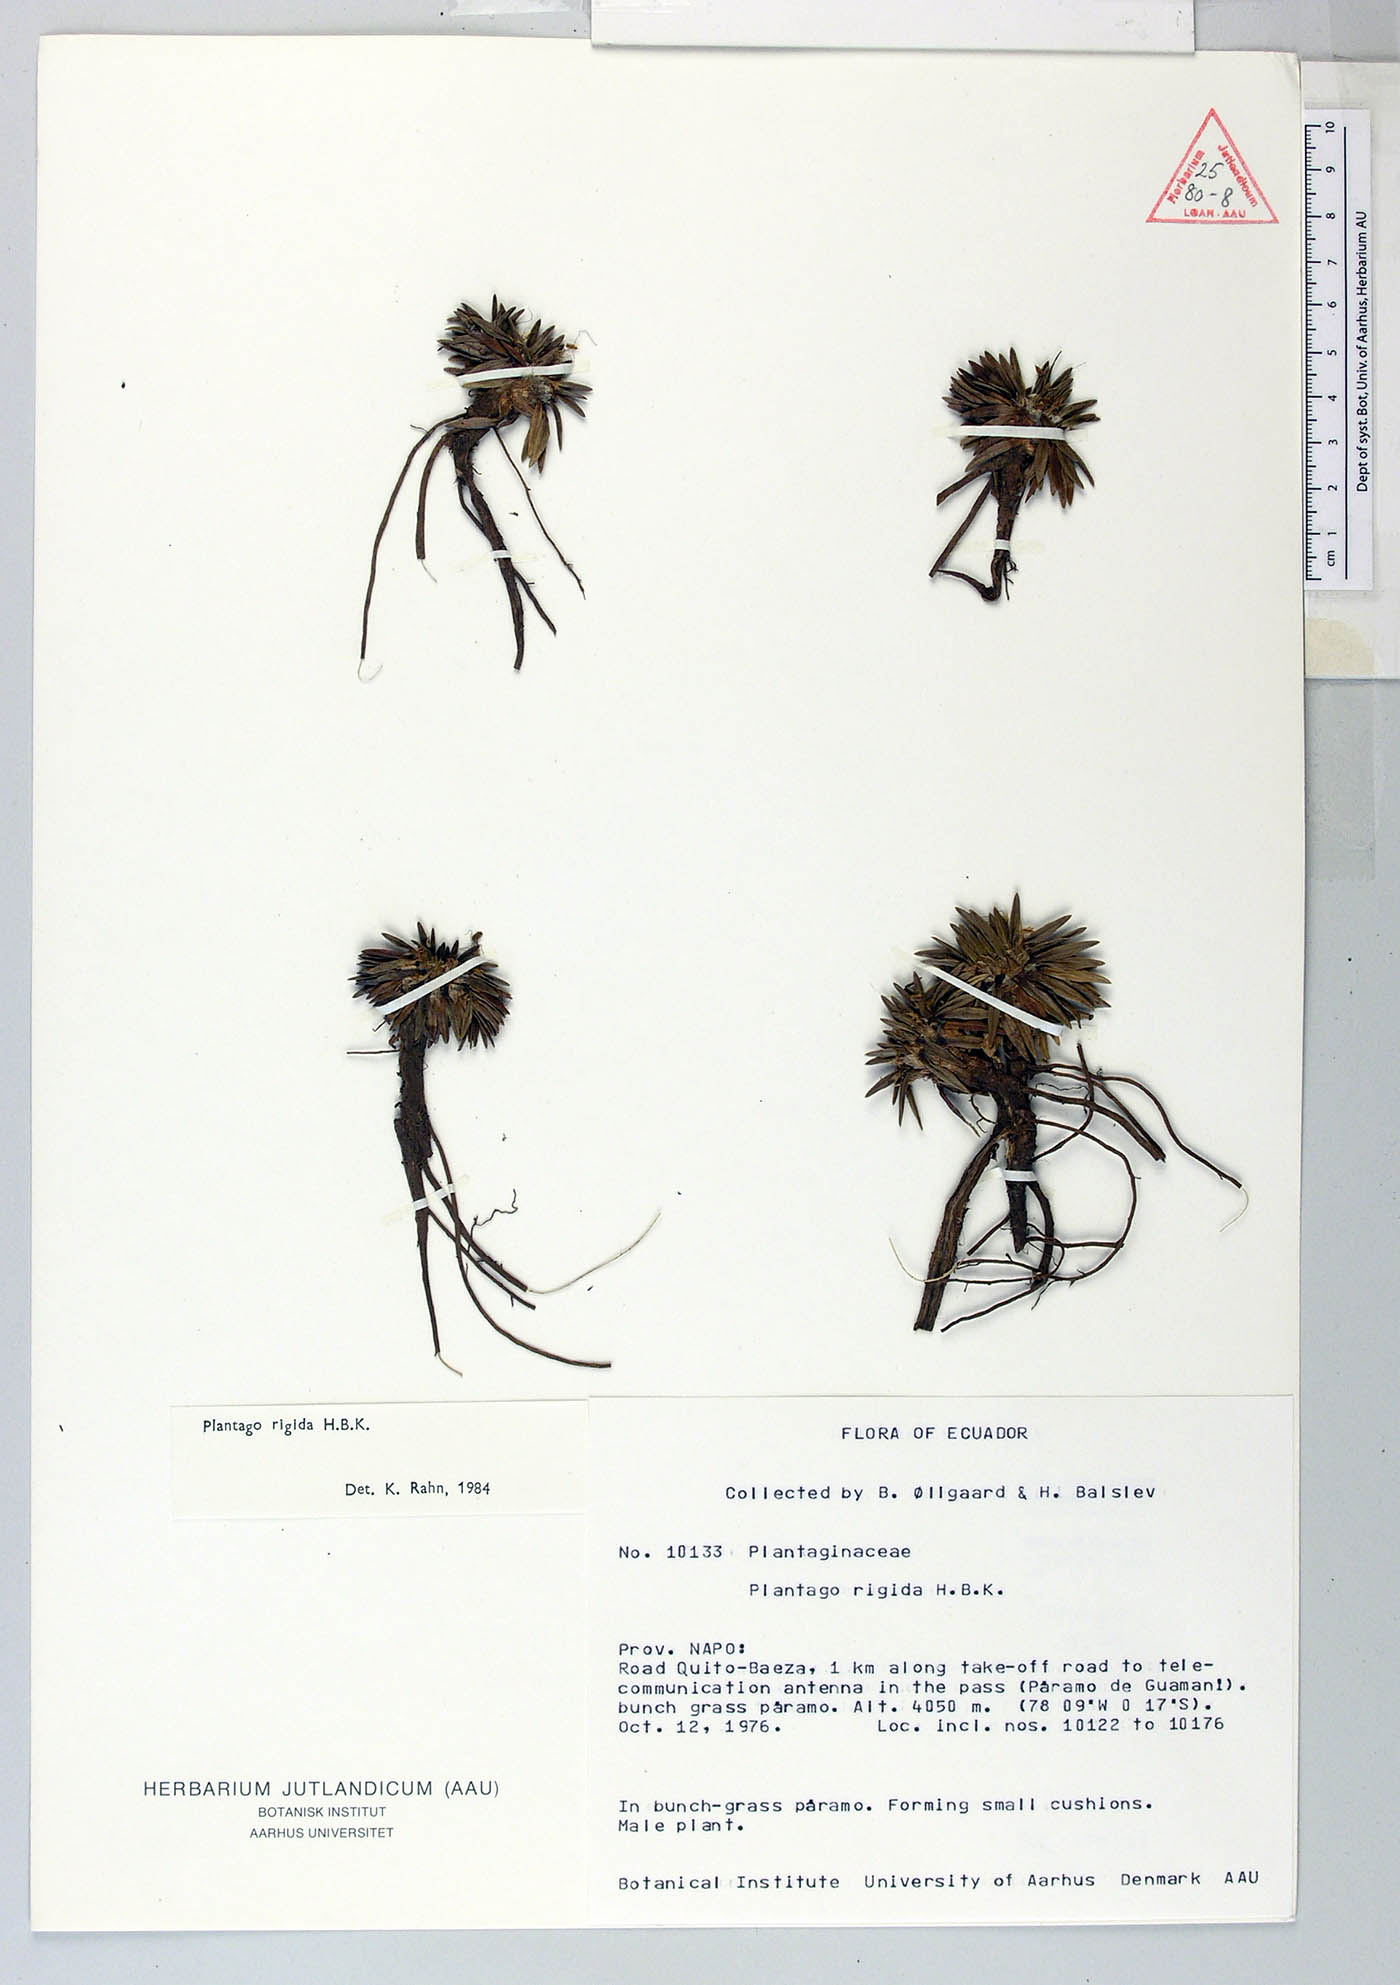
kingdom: Plantae
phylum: Tracheophyta
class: Magnoliopsida
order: Lamiales
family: Plantaginaceae
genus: Plantago
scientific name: Plantago rigida
